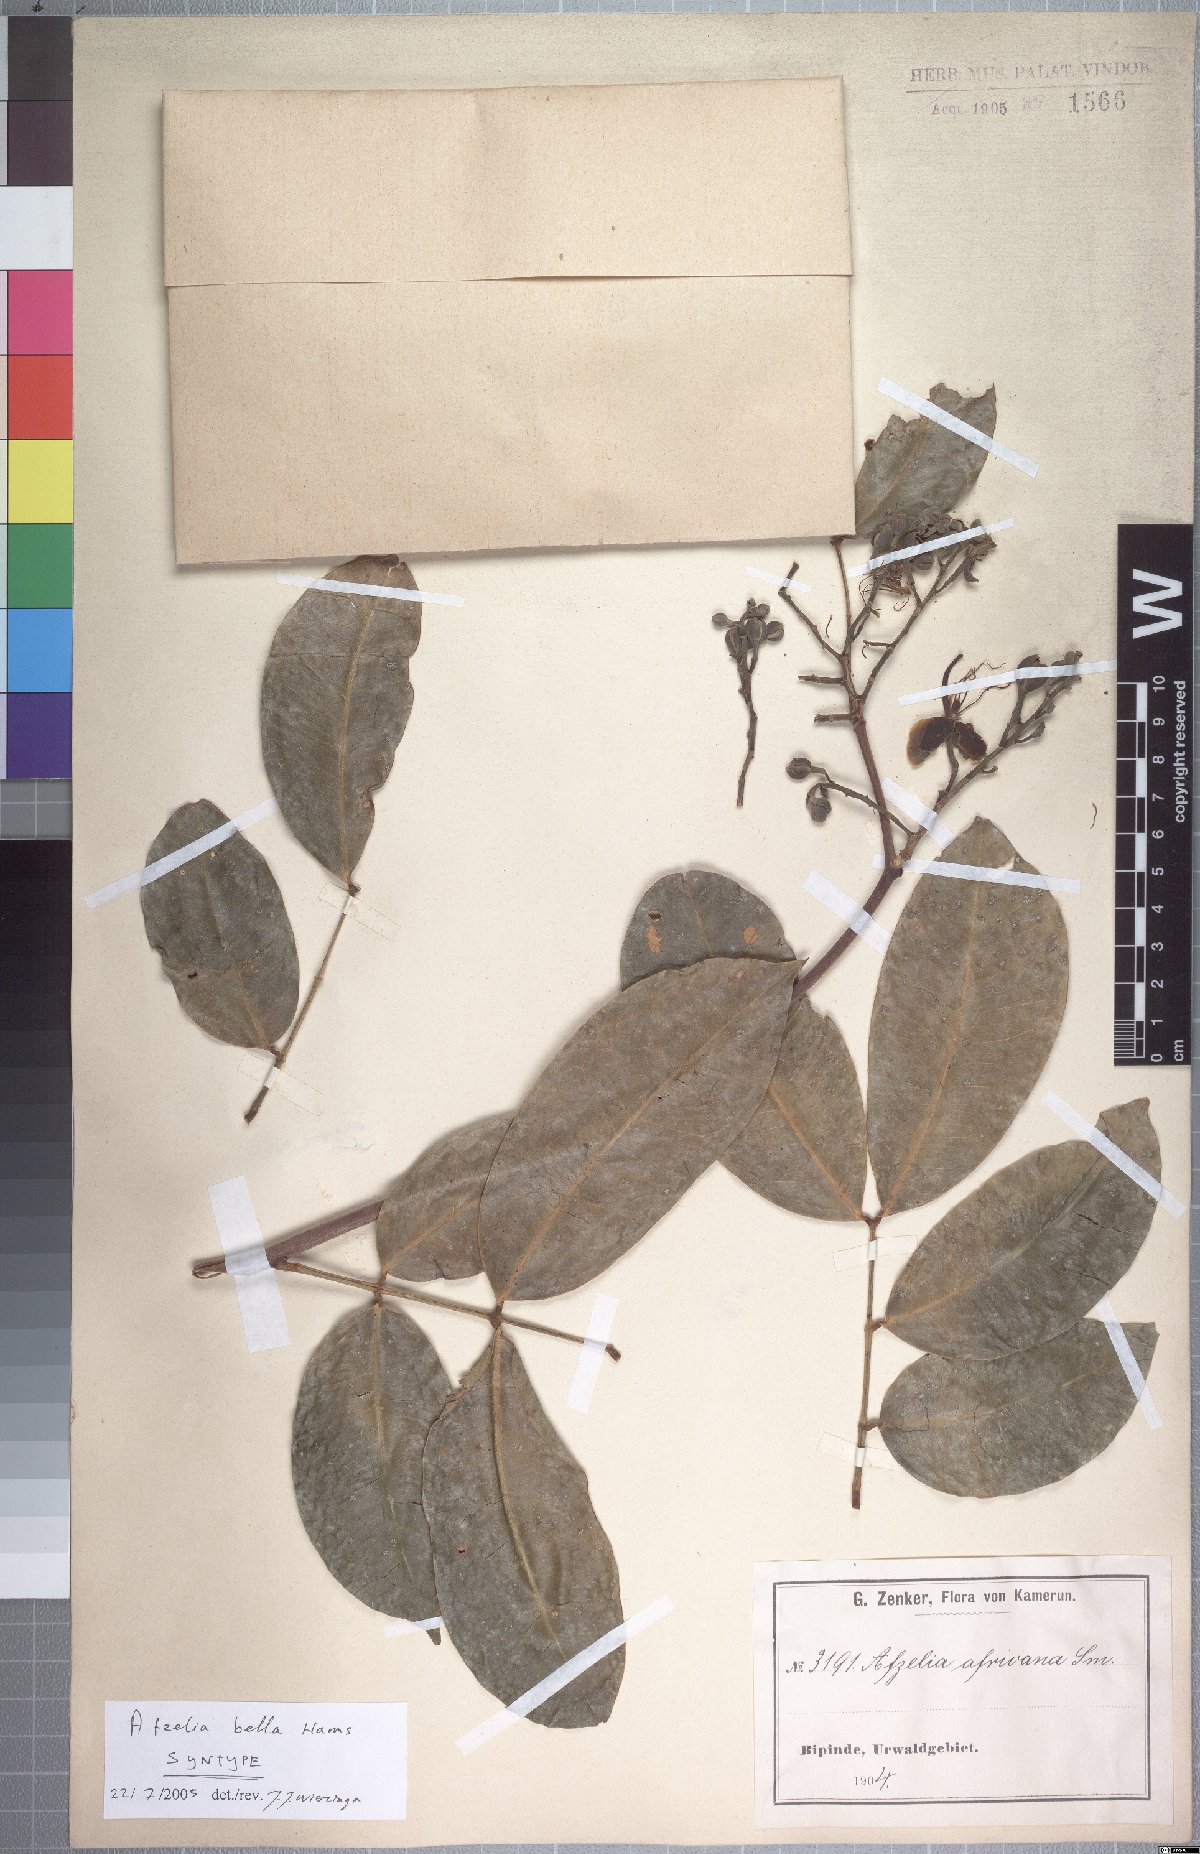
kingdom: Plantae
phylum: Tracheophyta
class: Magnoliopsida
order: Fabales
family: Fabaceae
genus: Afzelia
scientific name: Afzelia bella
